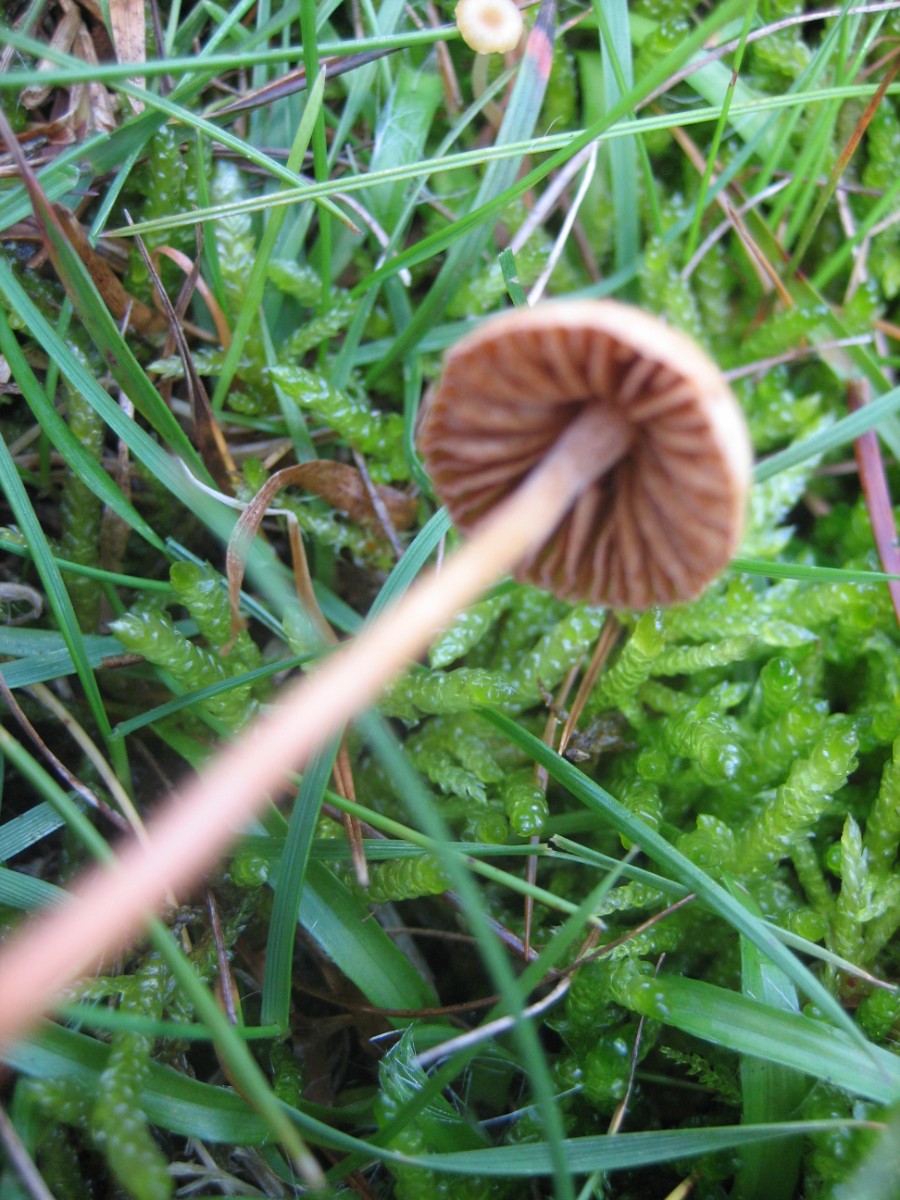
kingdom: Fungi
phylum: Basidiomycota
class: Agaricomycetes
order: Agaricales
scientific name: Agaricales
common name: champignonordenen
